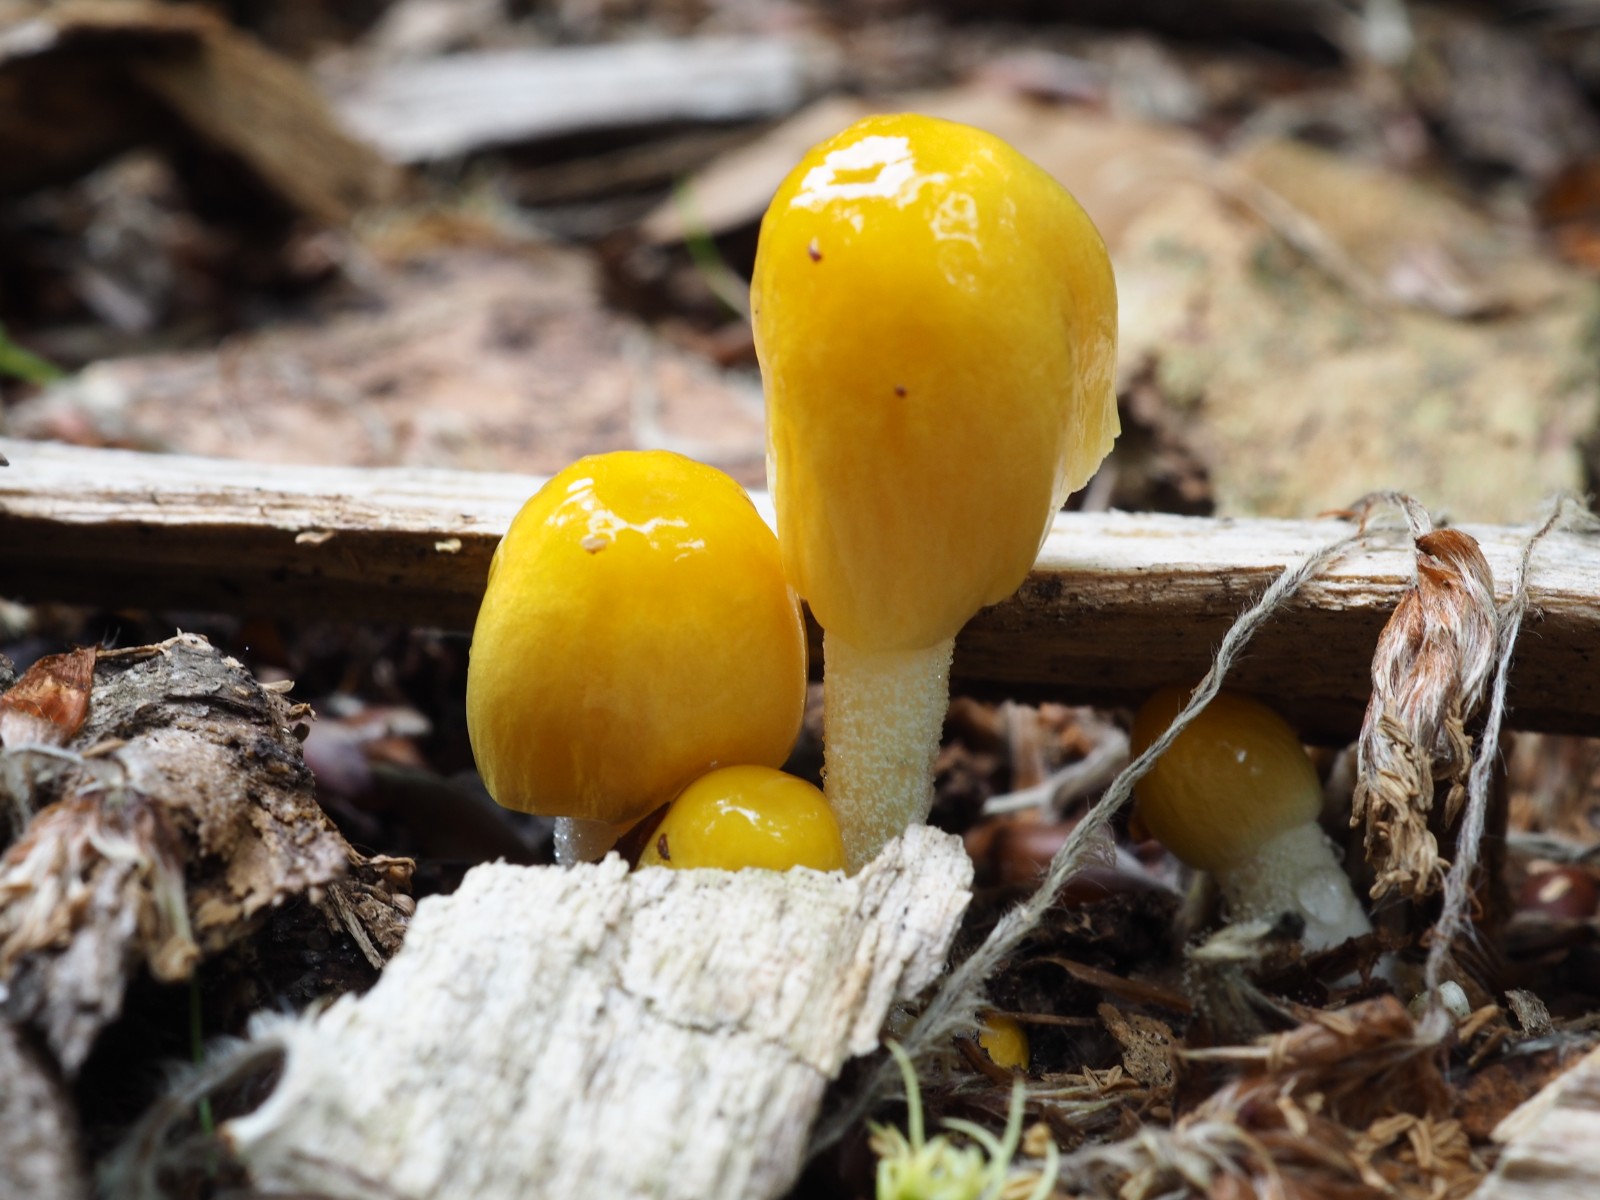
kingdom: Fungi
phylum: Basidiomycota
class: Agaricomycetes
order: Agaricales
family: Bolbitiaceae
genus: Bolbitius
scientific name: Bolbitius titubans
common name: almindelig gulhat
